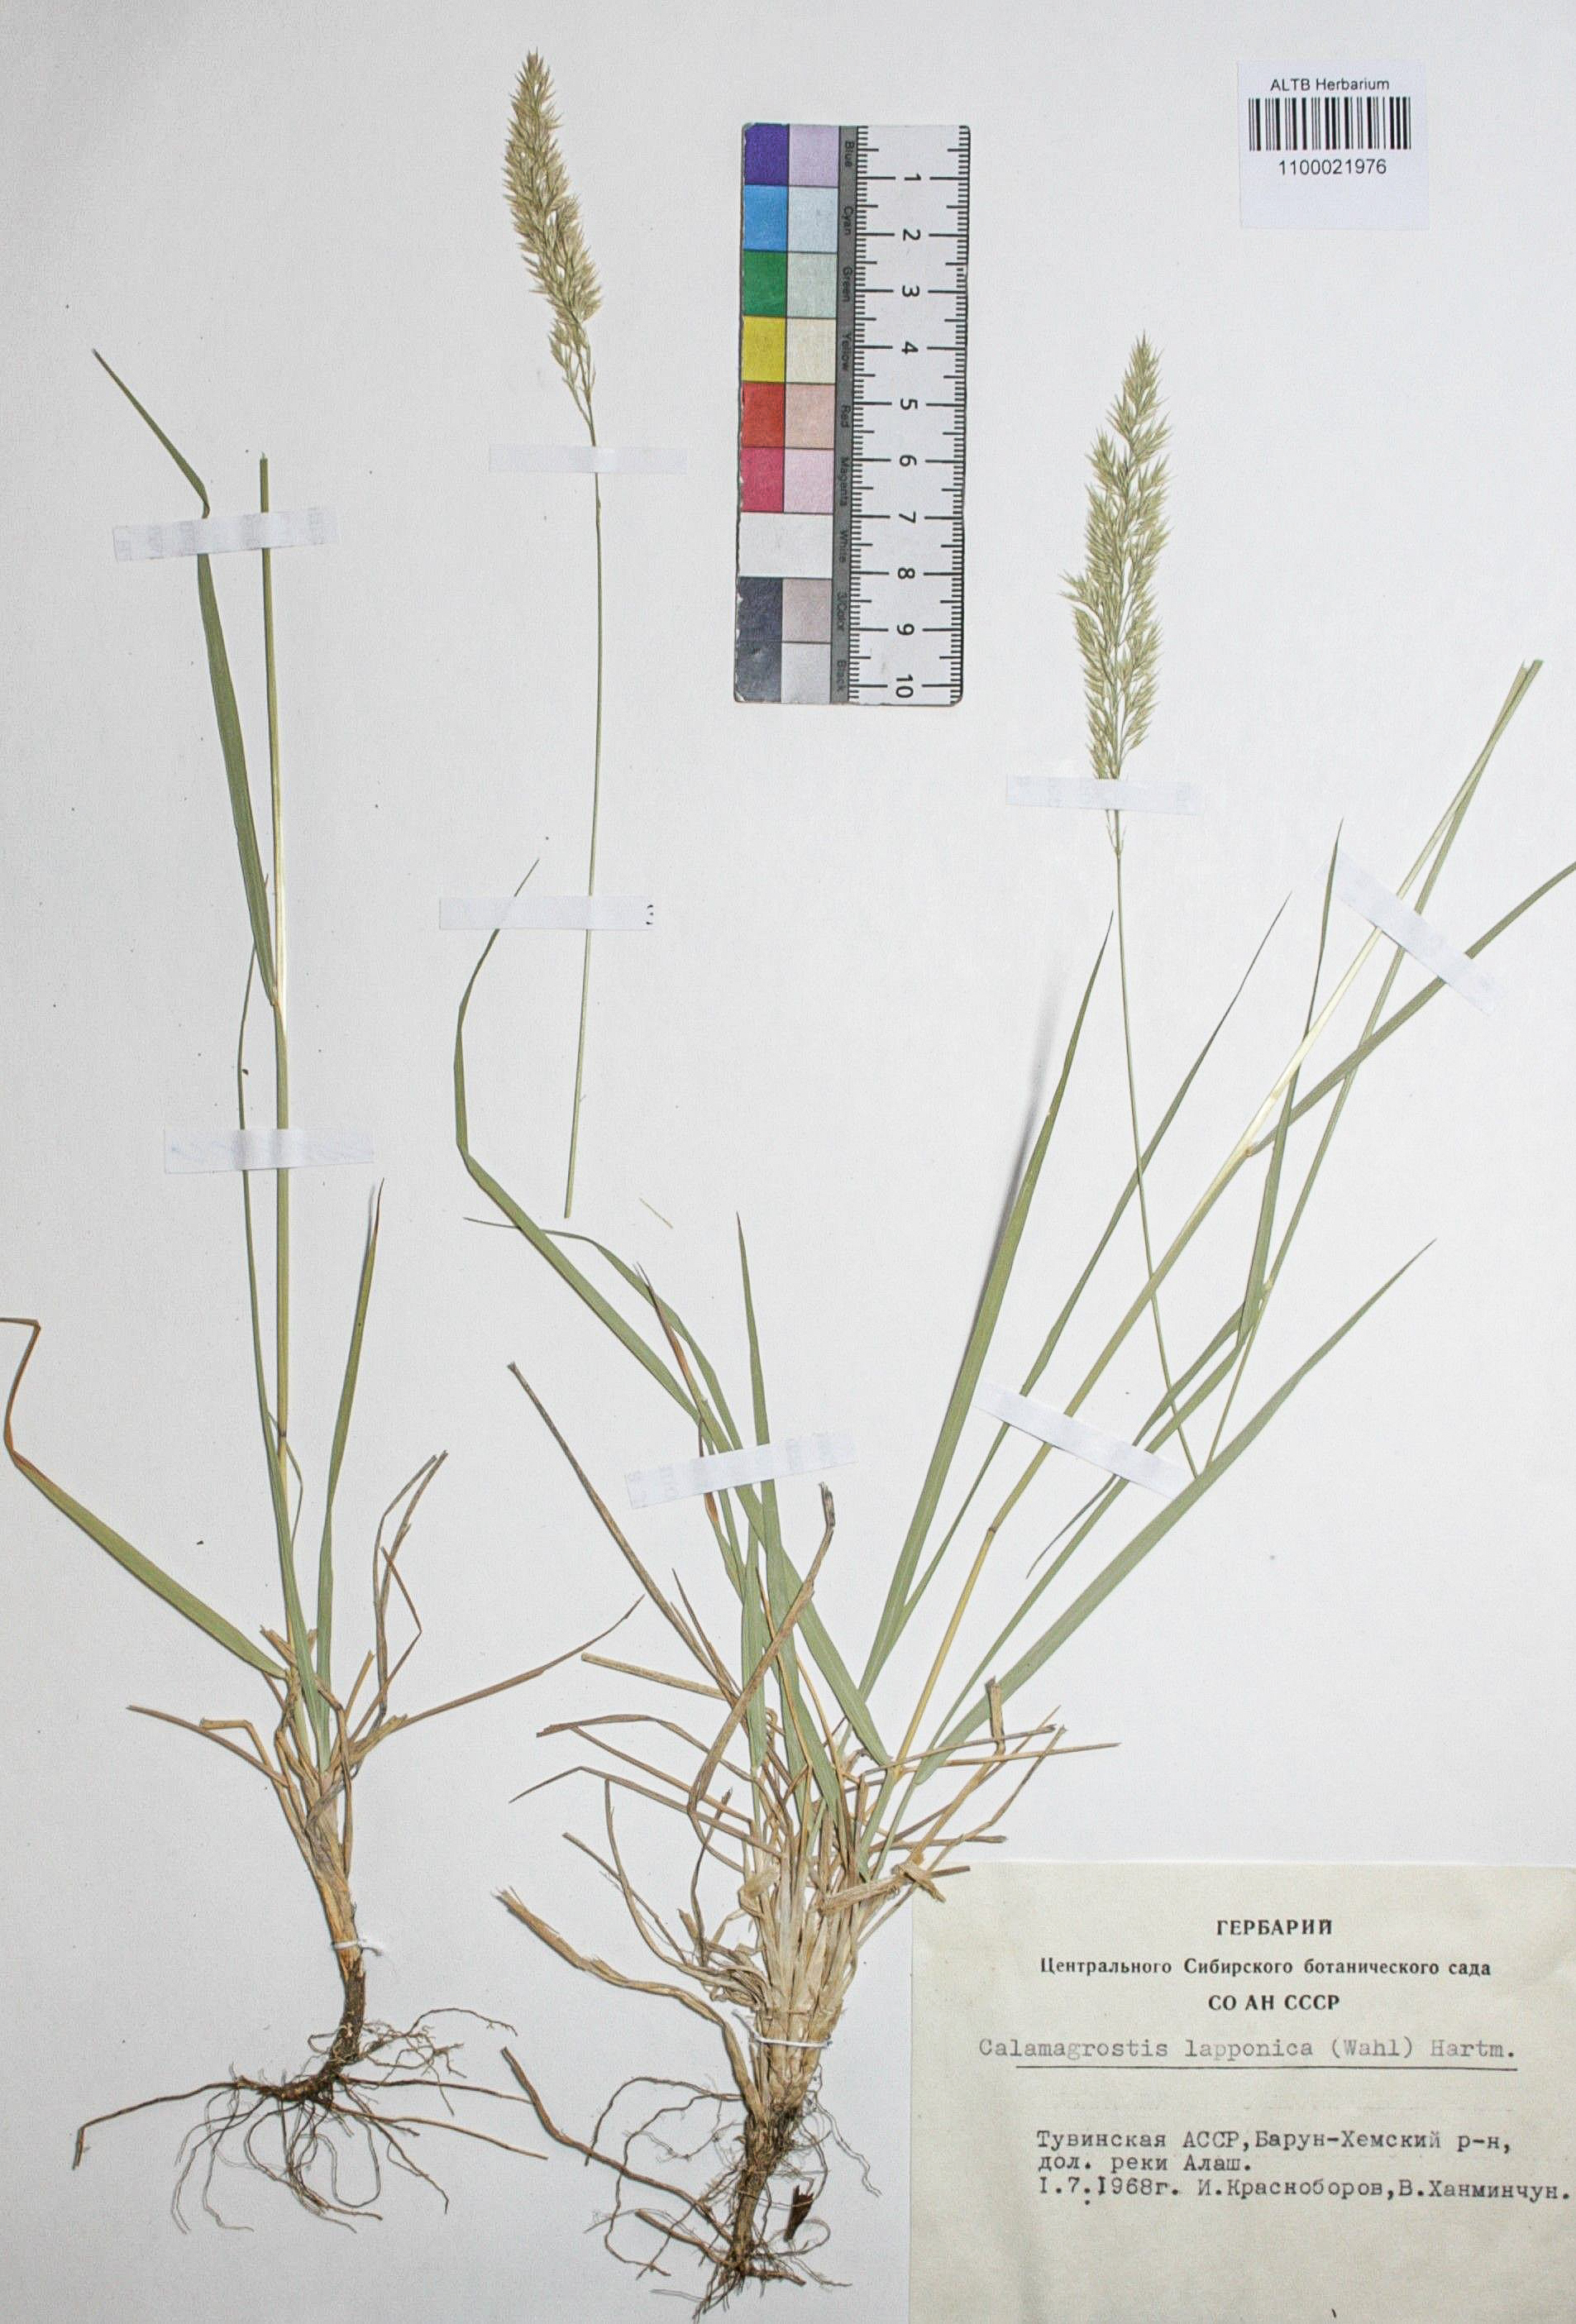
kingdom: Plantae
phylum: Tracheophyta
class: Liliopsida
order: Poales
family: Poaceae
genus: Calamagrostis
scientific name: Calamagrostis lapponica
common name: Lapland reedgrass
